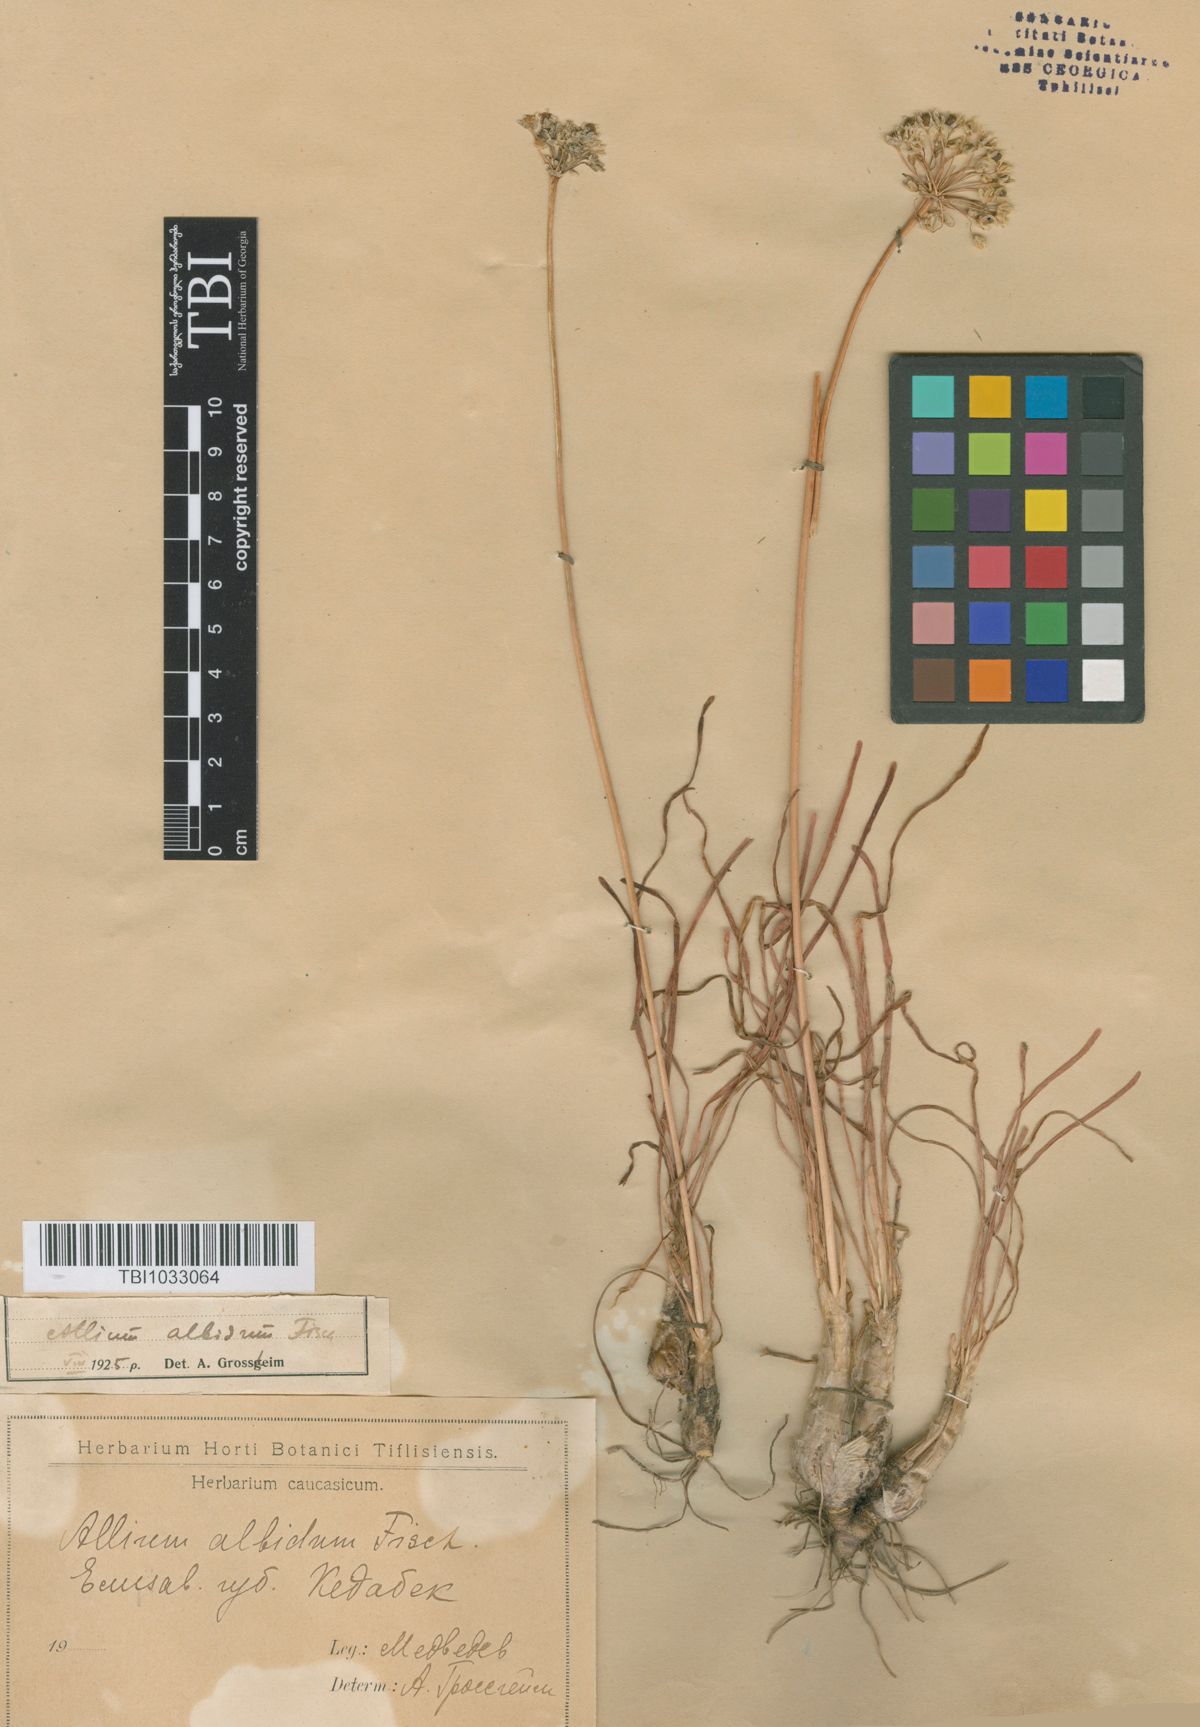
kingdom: Plantae
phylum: Tracheophyta
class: Liliopsida
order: Asparagales
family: Amaryllidaceae
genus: Allium
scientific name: Allium denudatum
